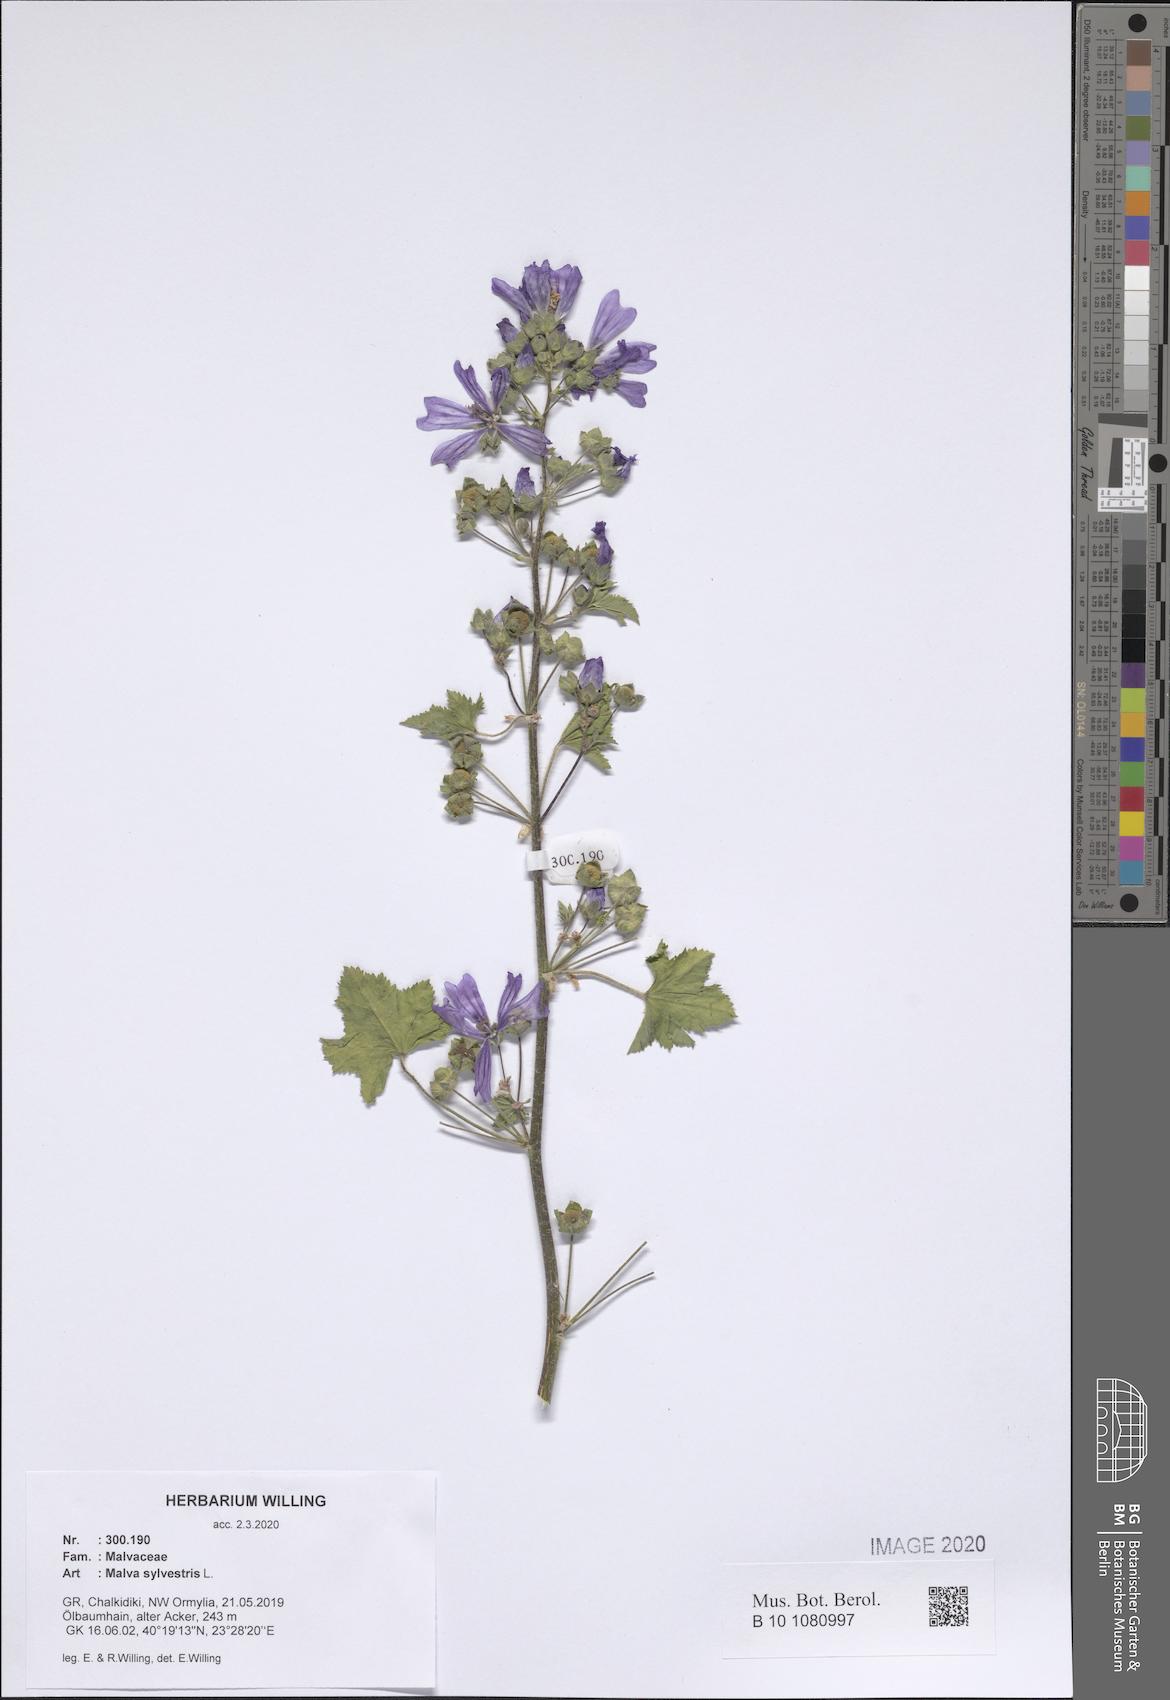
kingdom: Plantae
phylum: Tracheophyta
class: Magnoliopsida
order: Malvales
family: Malvaceae
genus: Malva
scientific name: Malva sylvestris
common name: Common mallow
